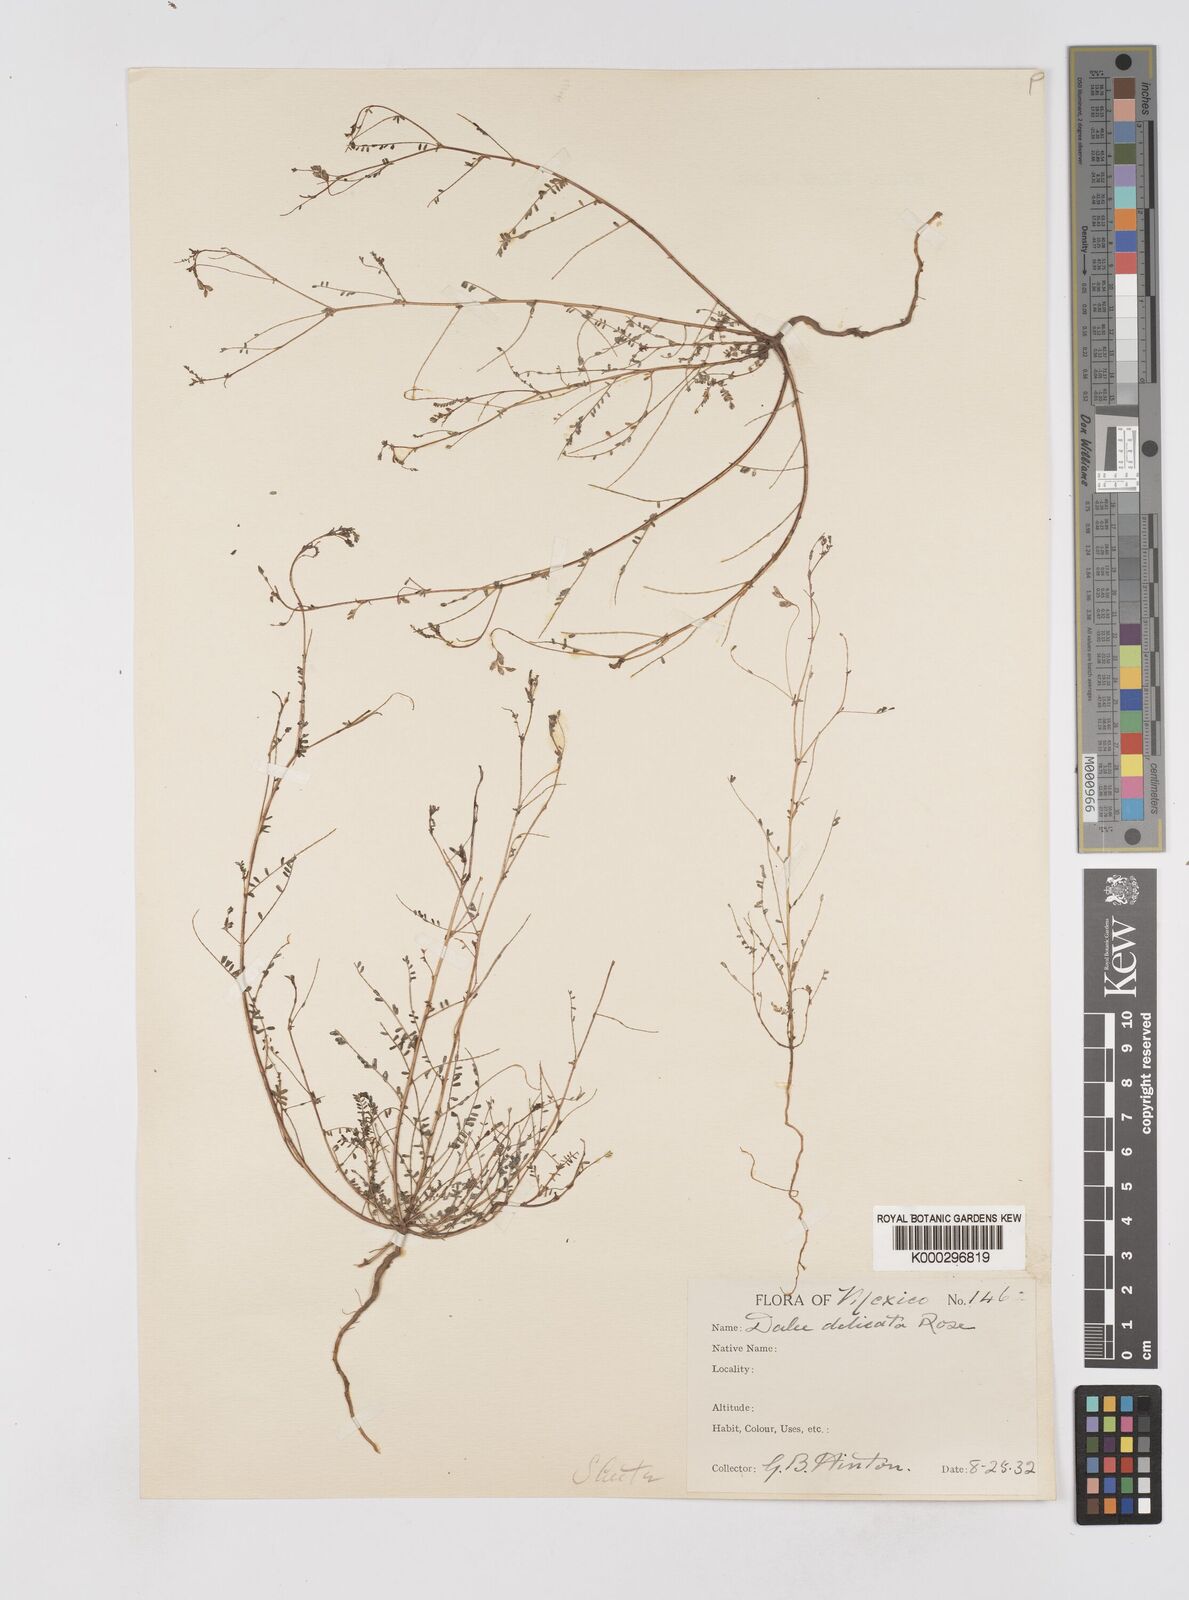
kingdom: Plantae
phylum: Tracheophyta
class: Magnoliopsida
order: Fabales
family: Fabaceae
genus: Marina
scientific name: Marina gracilis
